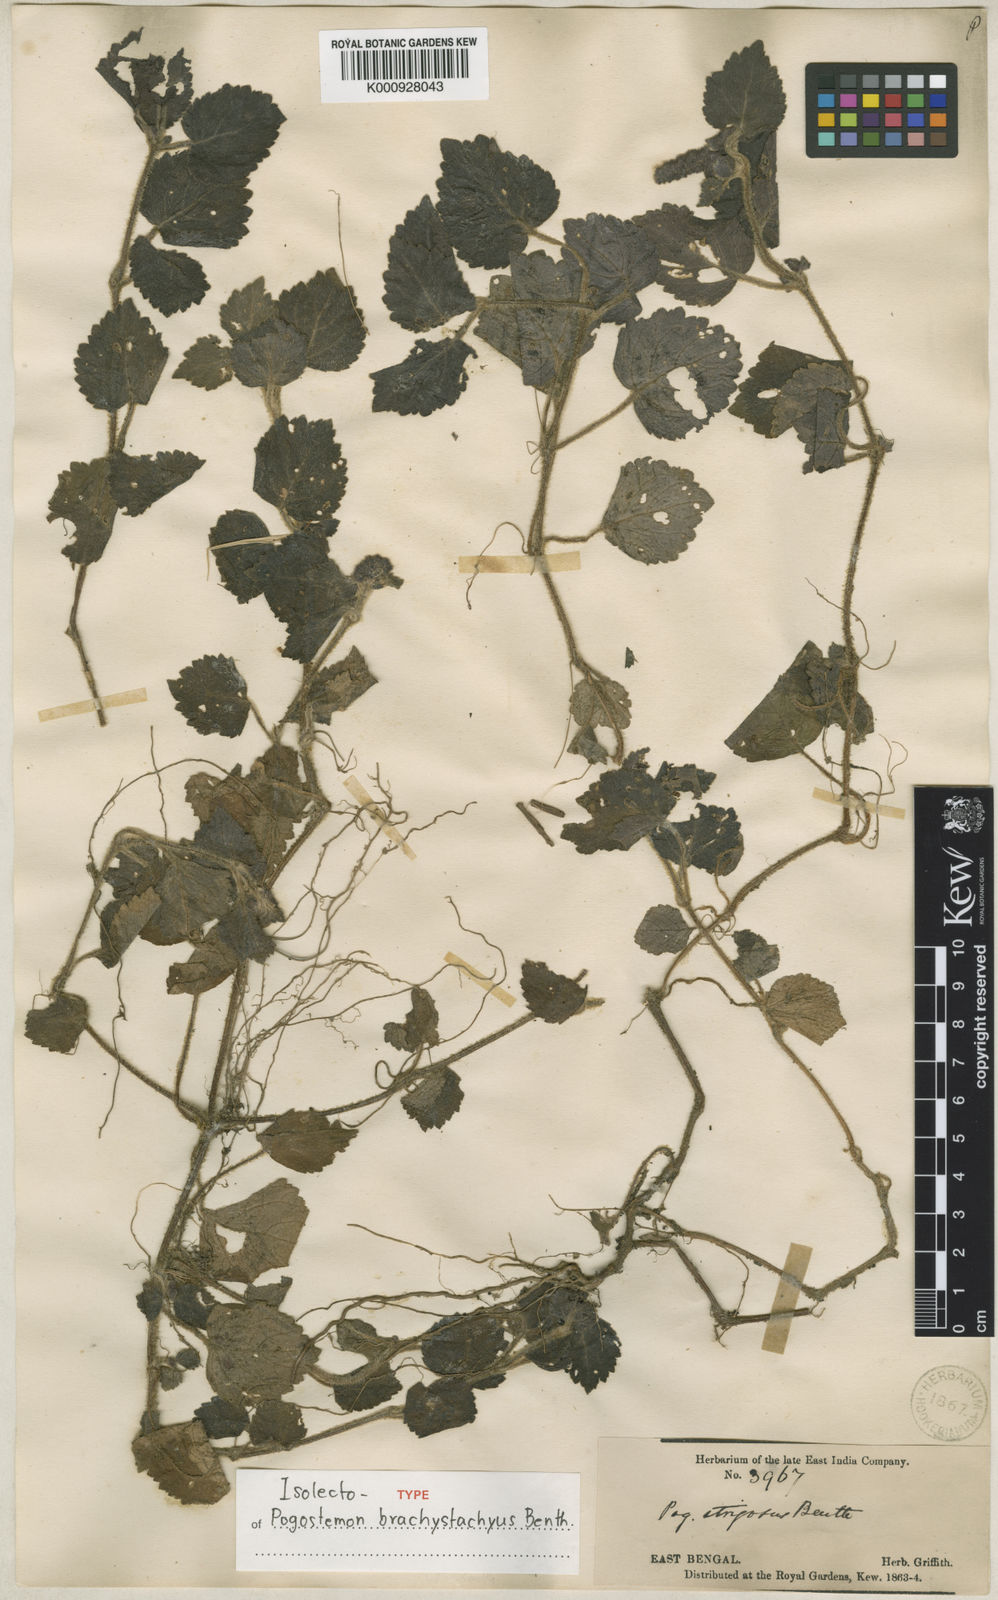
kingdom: Plantae
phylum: Tracheophyta
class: Magnoliopsida
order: Lamiales
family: Lamiaceae
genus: Pogostemon
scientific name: Pogostemon brachystachyus
